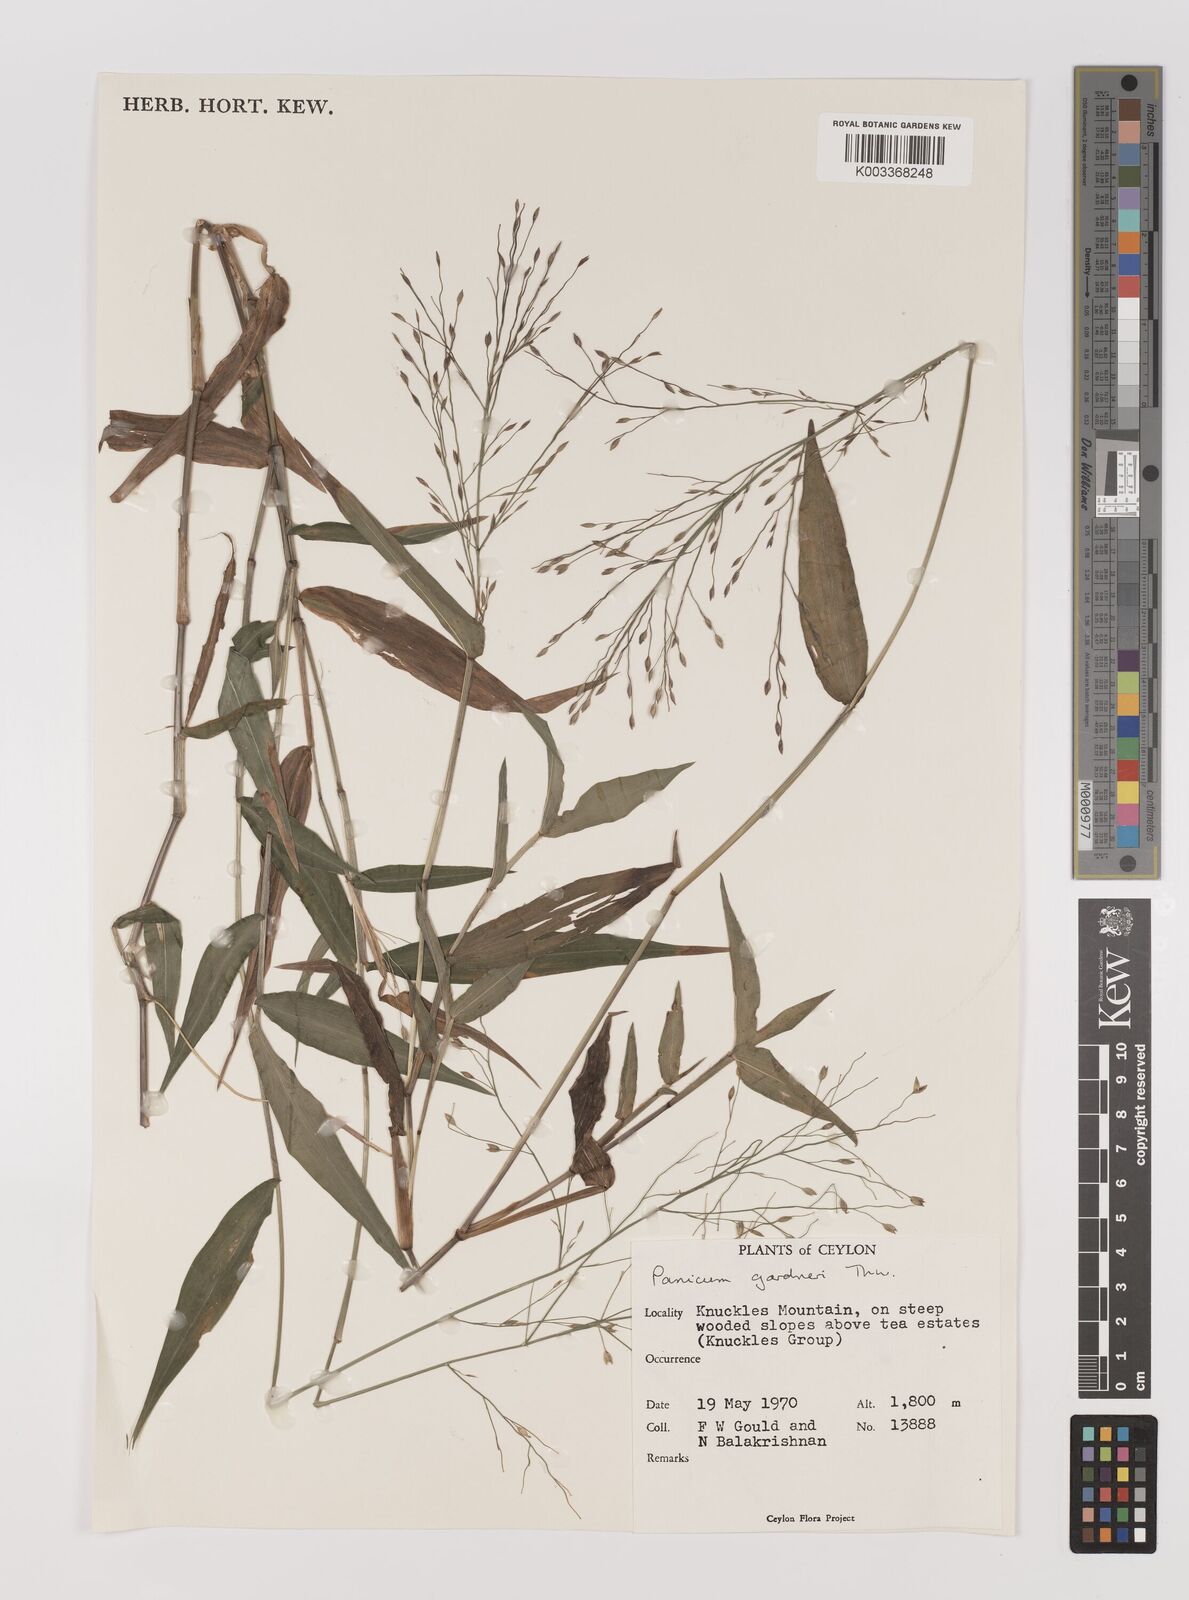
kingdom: Plantae
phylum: Tracheophyta
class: Liliopsida
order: Poales
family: Poaceae
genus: Panicum
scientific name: Panicum gardneri
